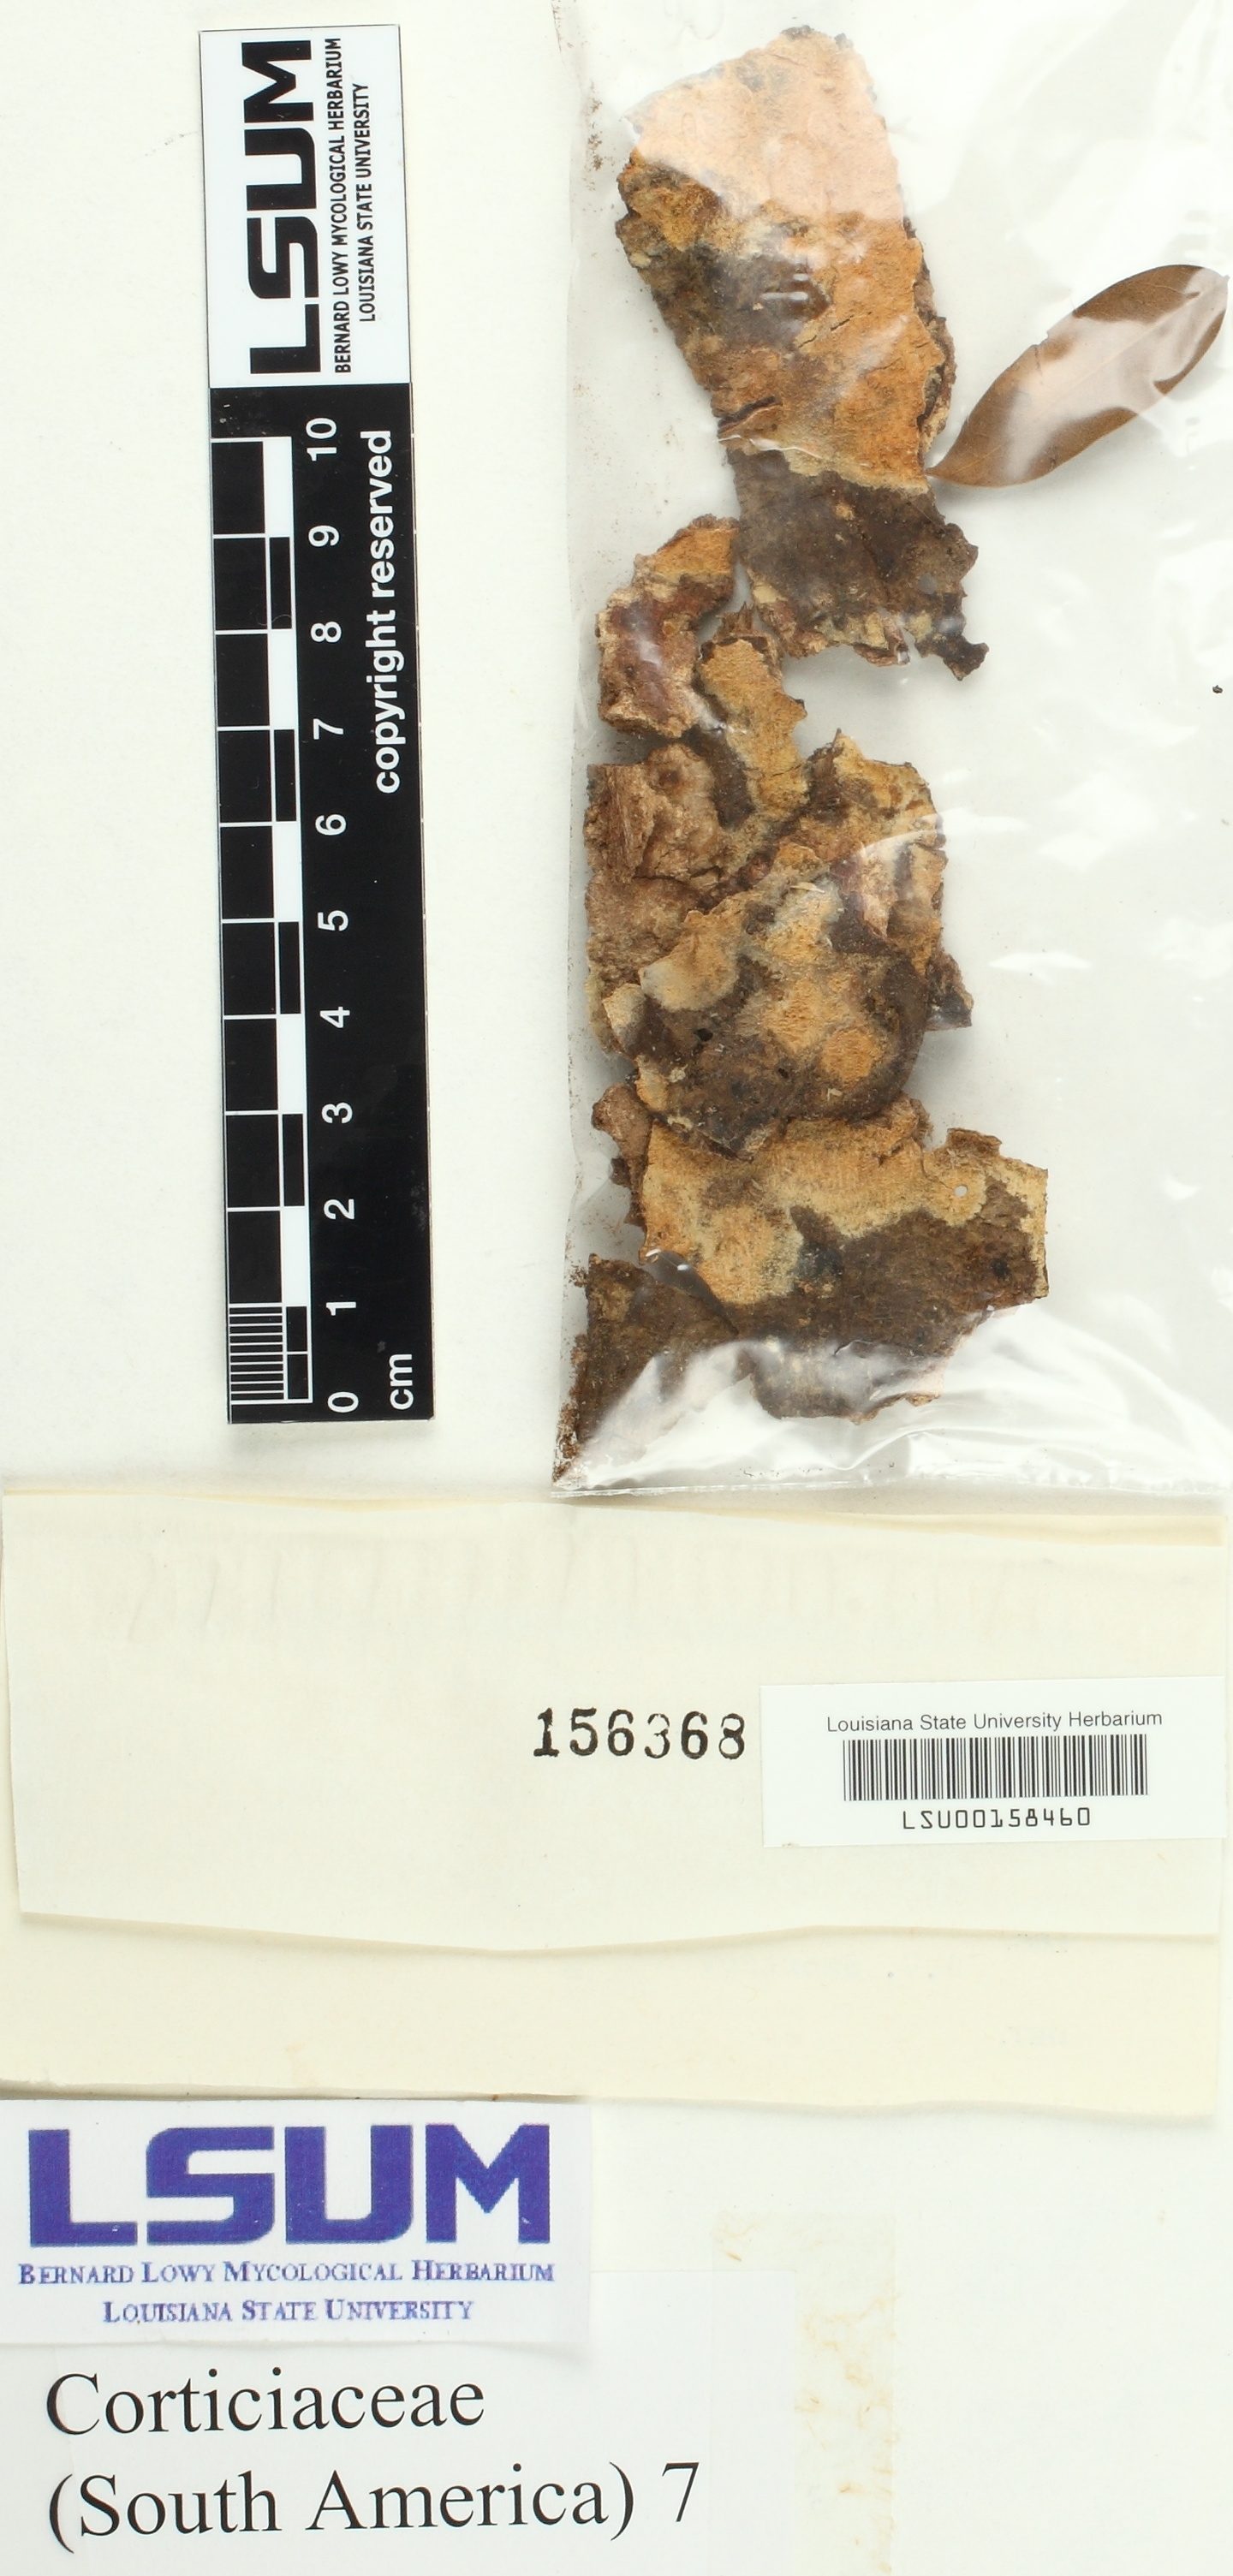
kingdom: Fungi
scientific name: Fungi
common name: Fungi
